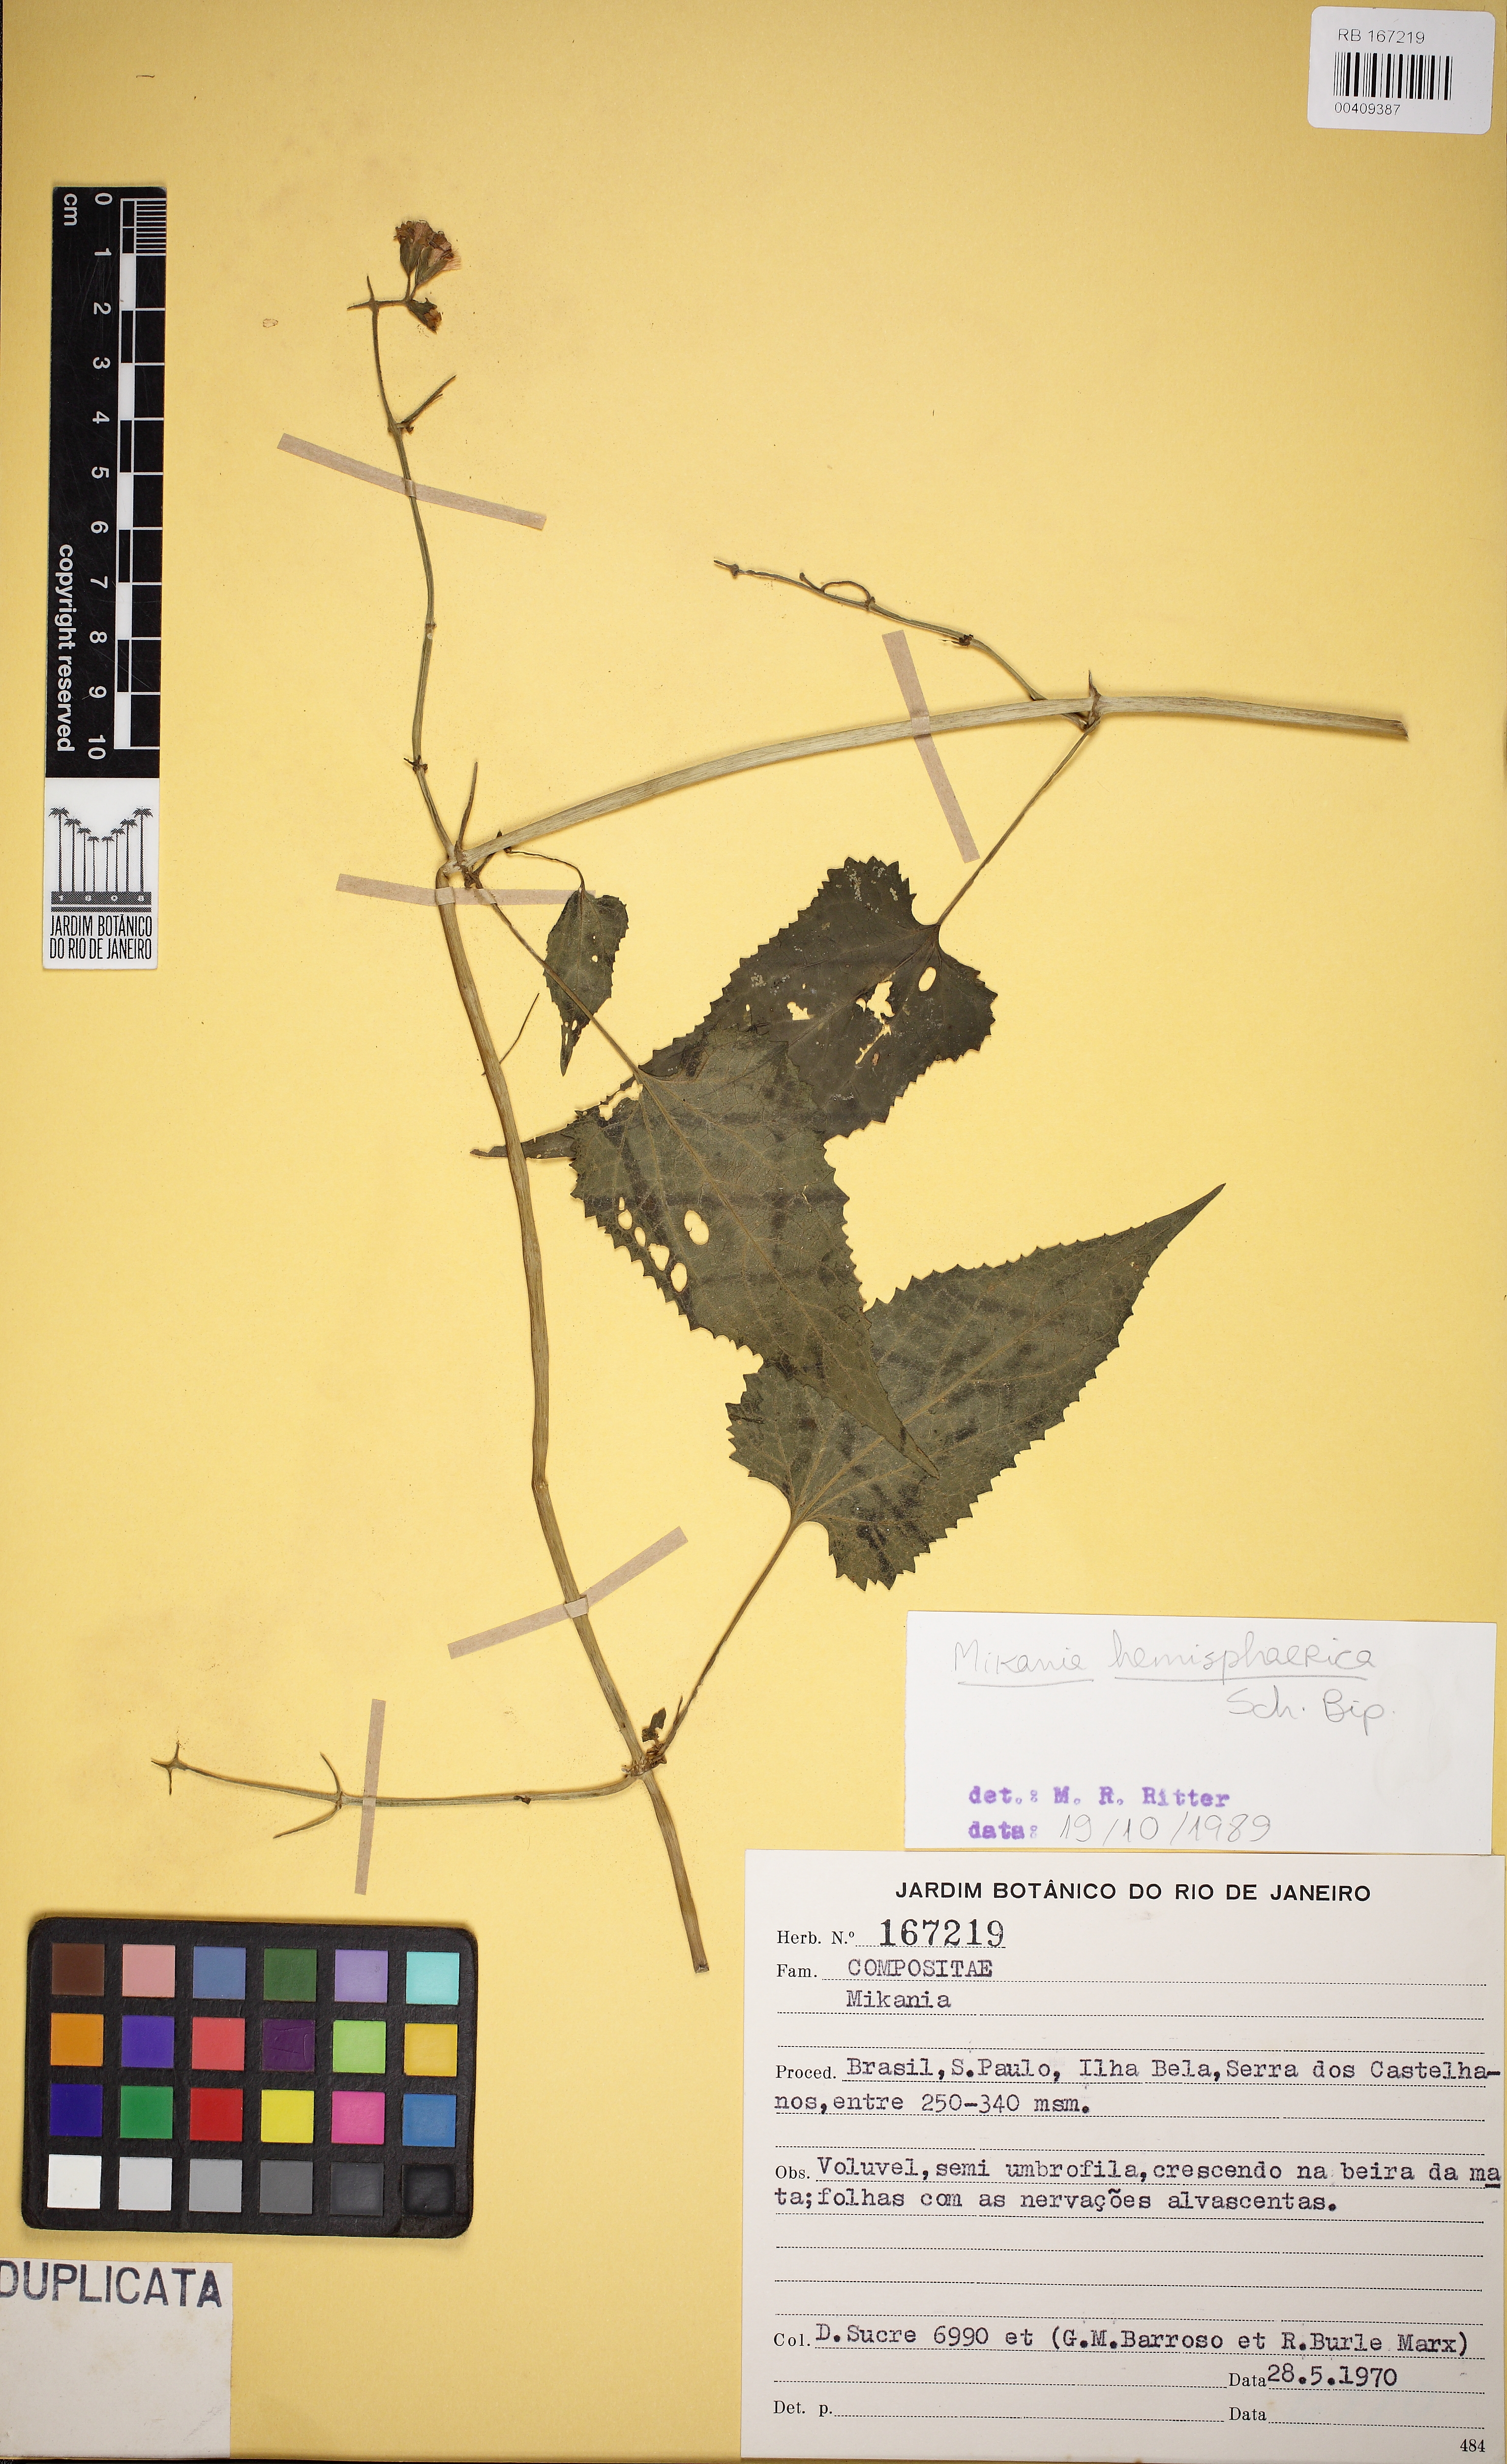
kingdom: Plantae
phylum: Tracheophyta
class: Magnoliopsida
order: Asterales
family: Asteraceae
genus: Mikania
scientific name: Mikania hemisphaerica
